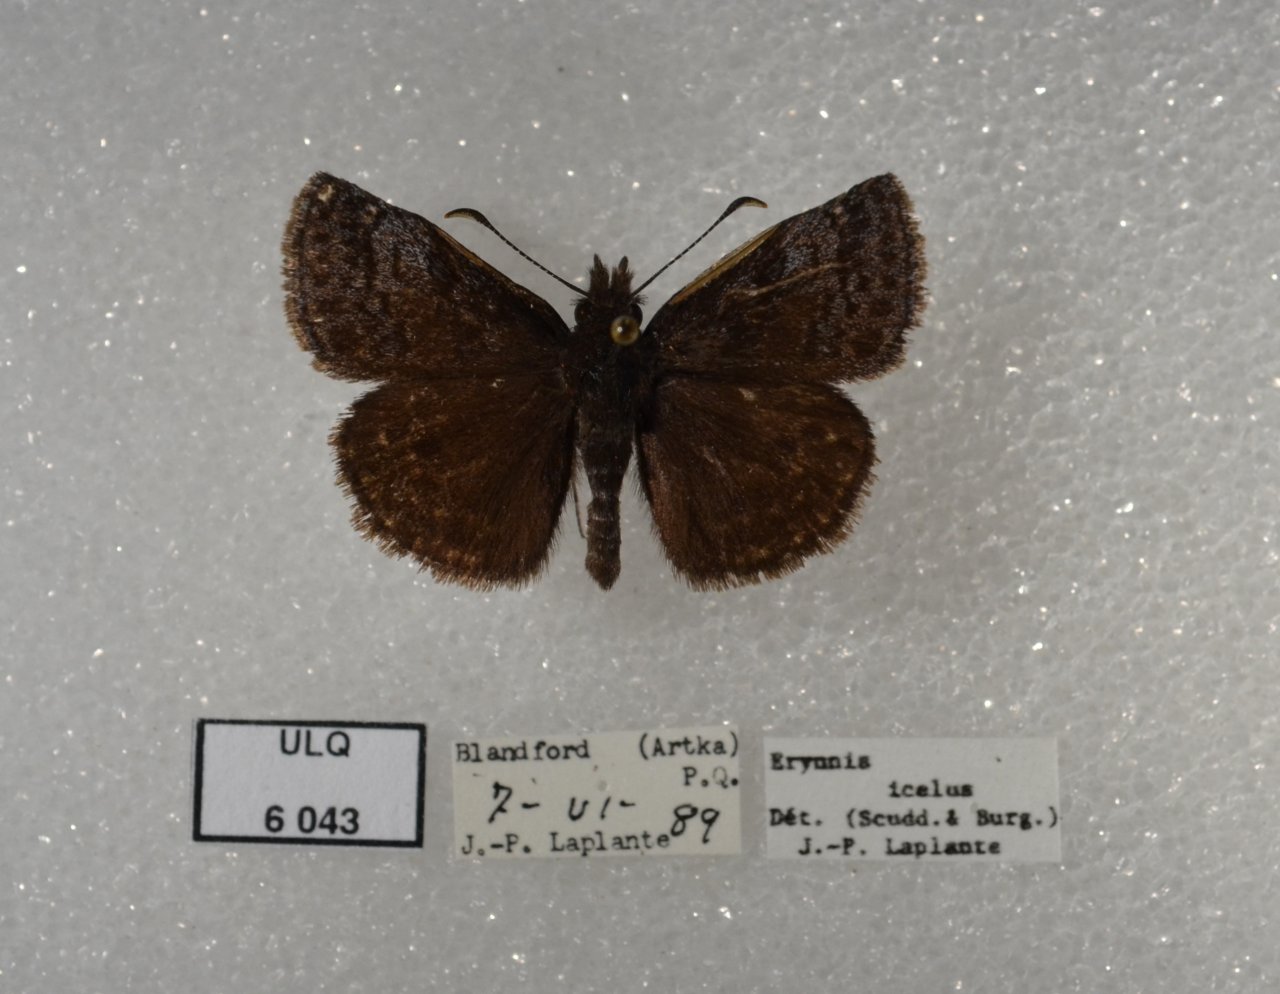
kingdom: Animalia
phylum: Arthropoda
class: Insecta
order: Lepidoptera
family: Hesperiidae
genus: Erynnis
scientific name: Erynnis icelus
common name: Dreamy Duskywing
